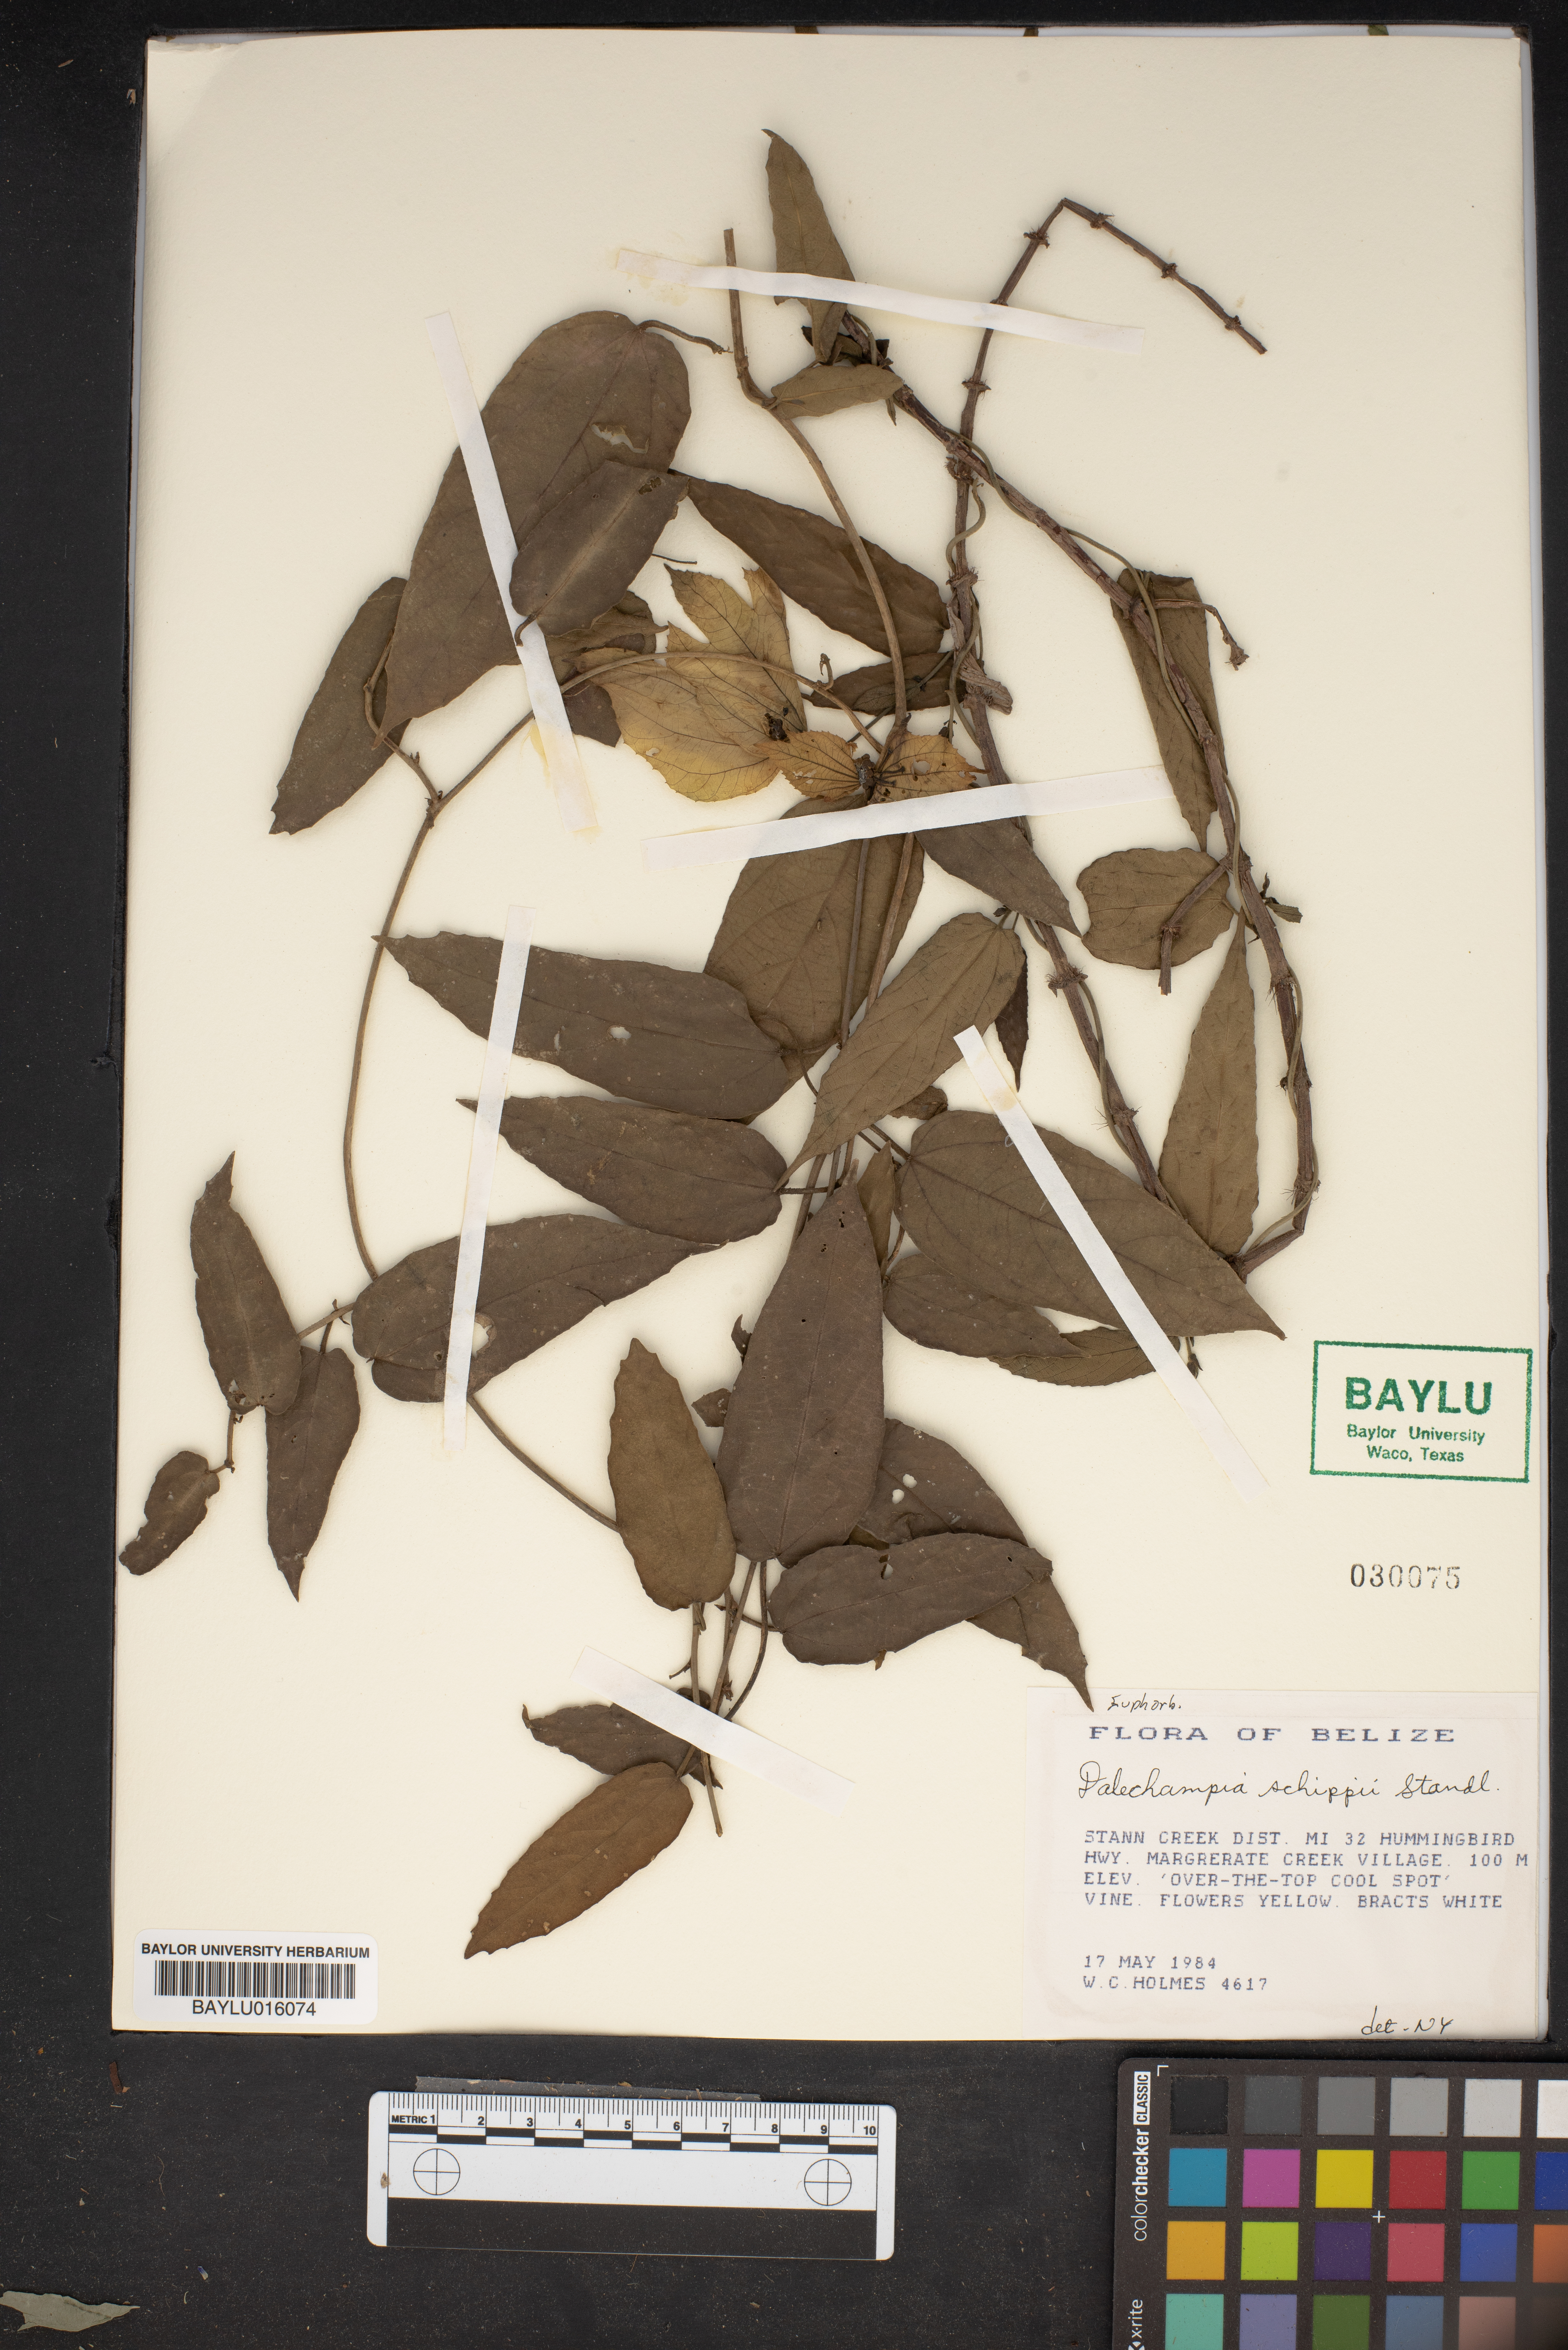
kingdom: Plantae
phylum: Tracheophyta
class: Magnoliopsida
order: Malpighiales
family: Euphorbiaceae
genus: Dalechampia
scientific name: Dalechampia schippii
